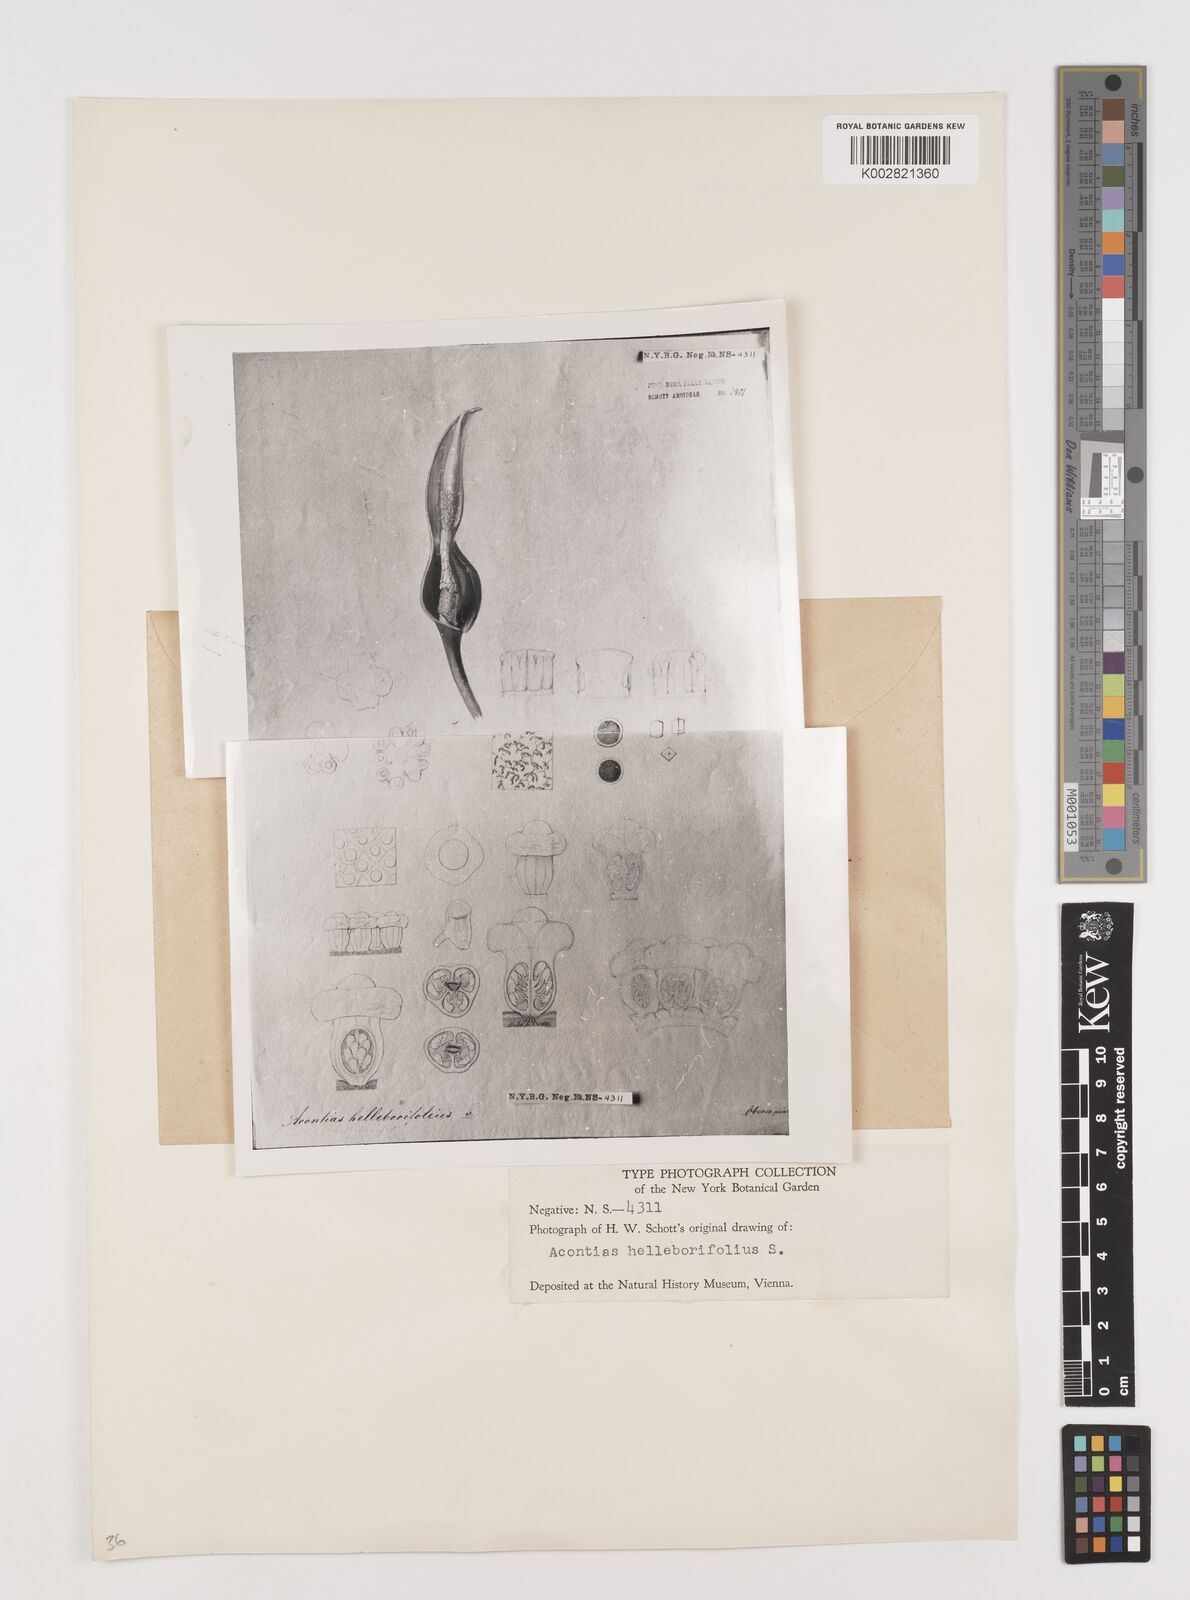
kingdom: Plantae
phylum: Tracheophyta
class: Liliopsida
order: Alismatales
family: Araceae
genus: Xanthosoma
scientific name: Xanthosoma helleborifolium
